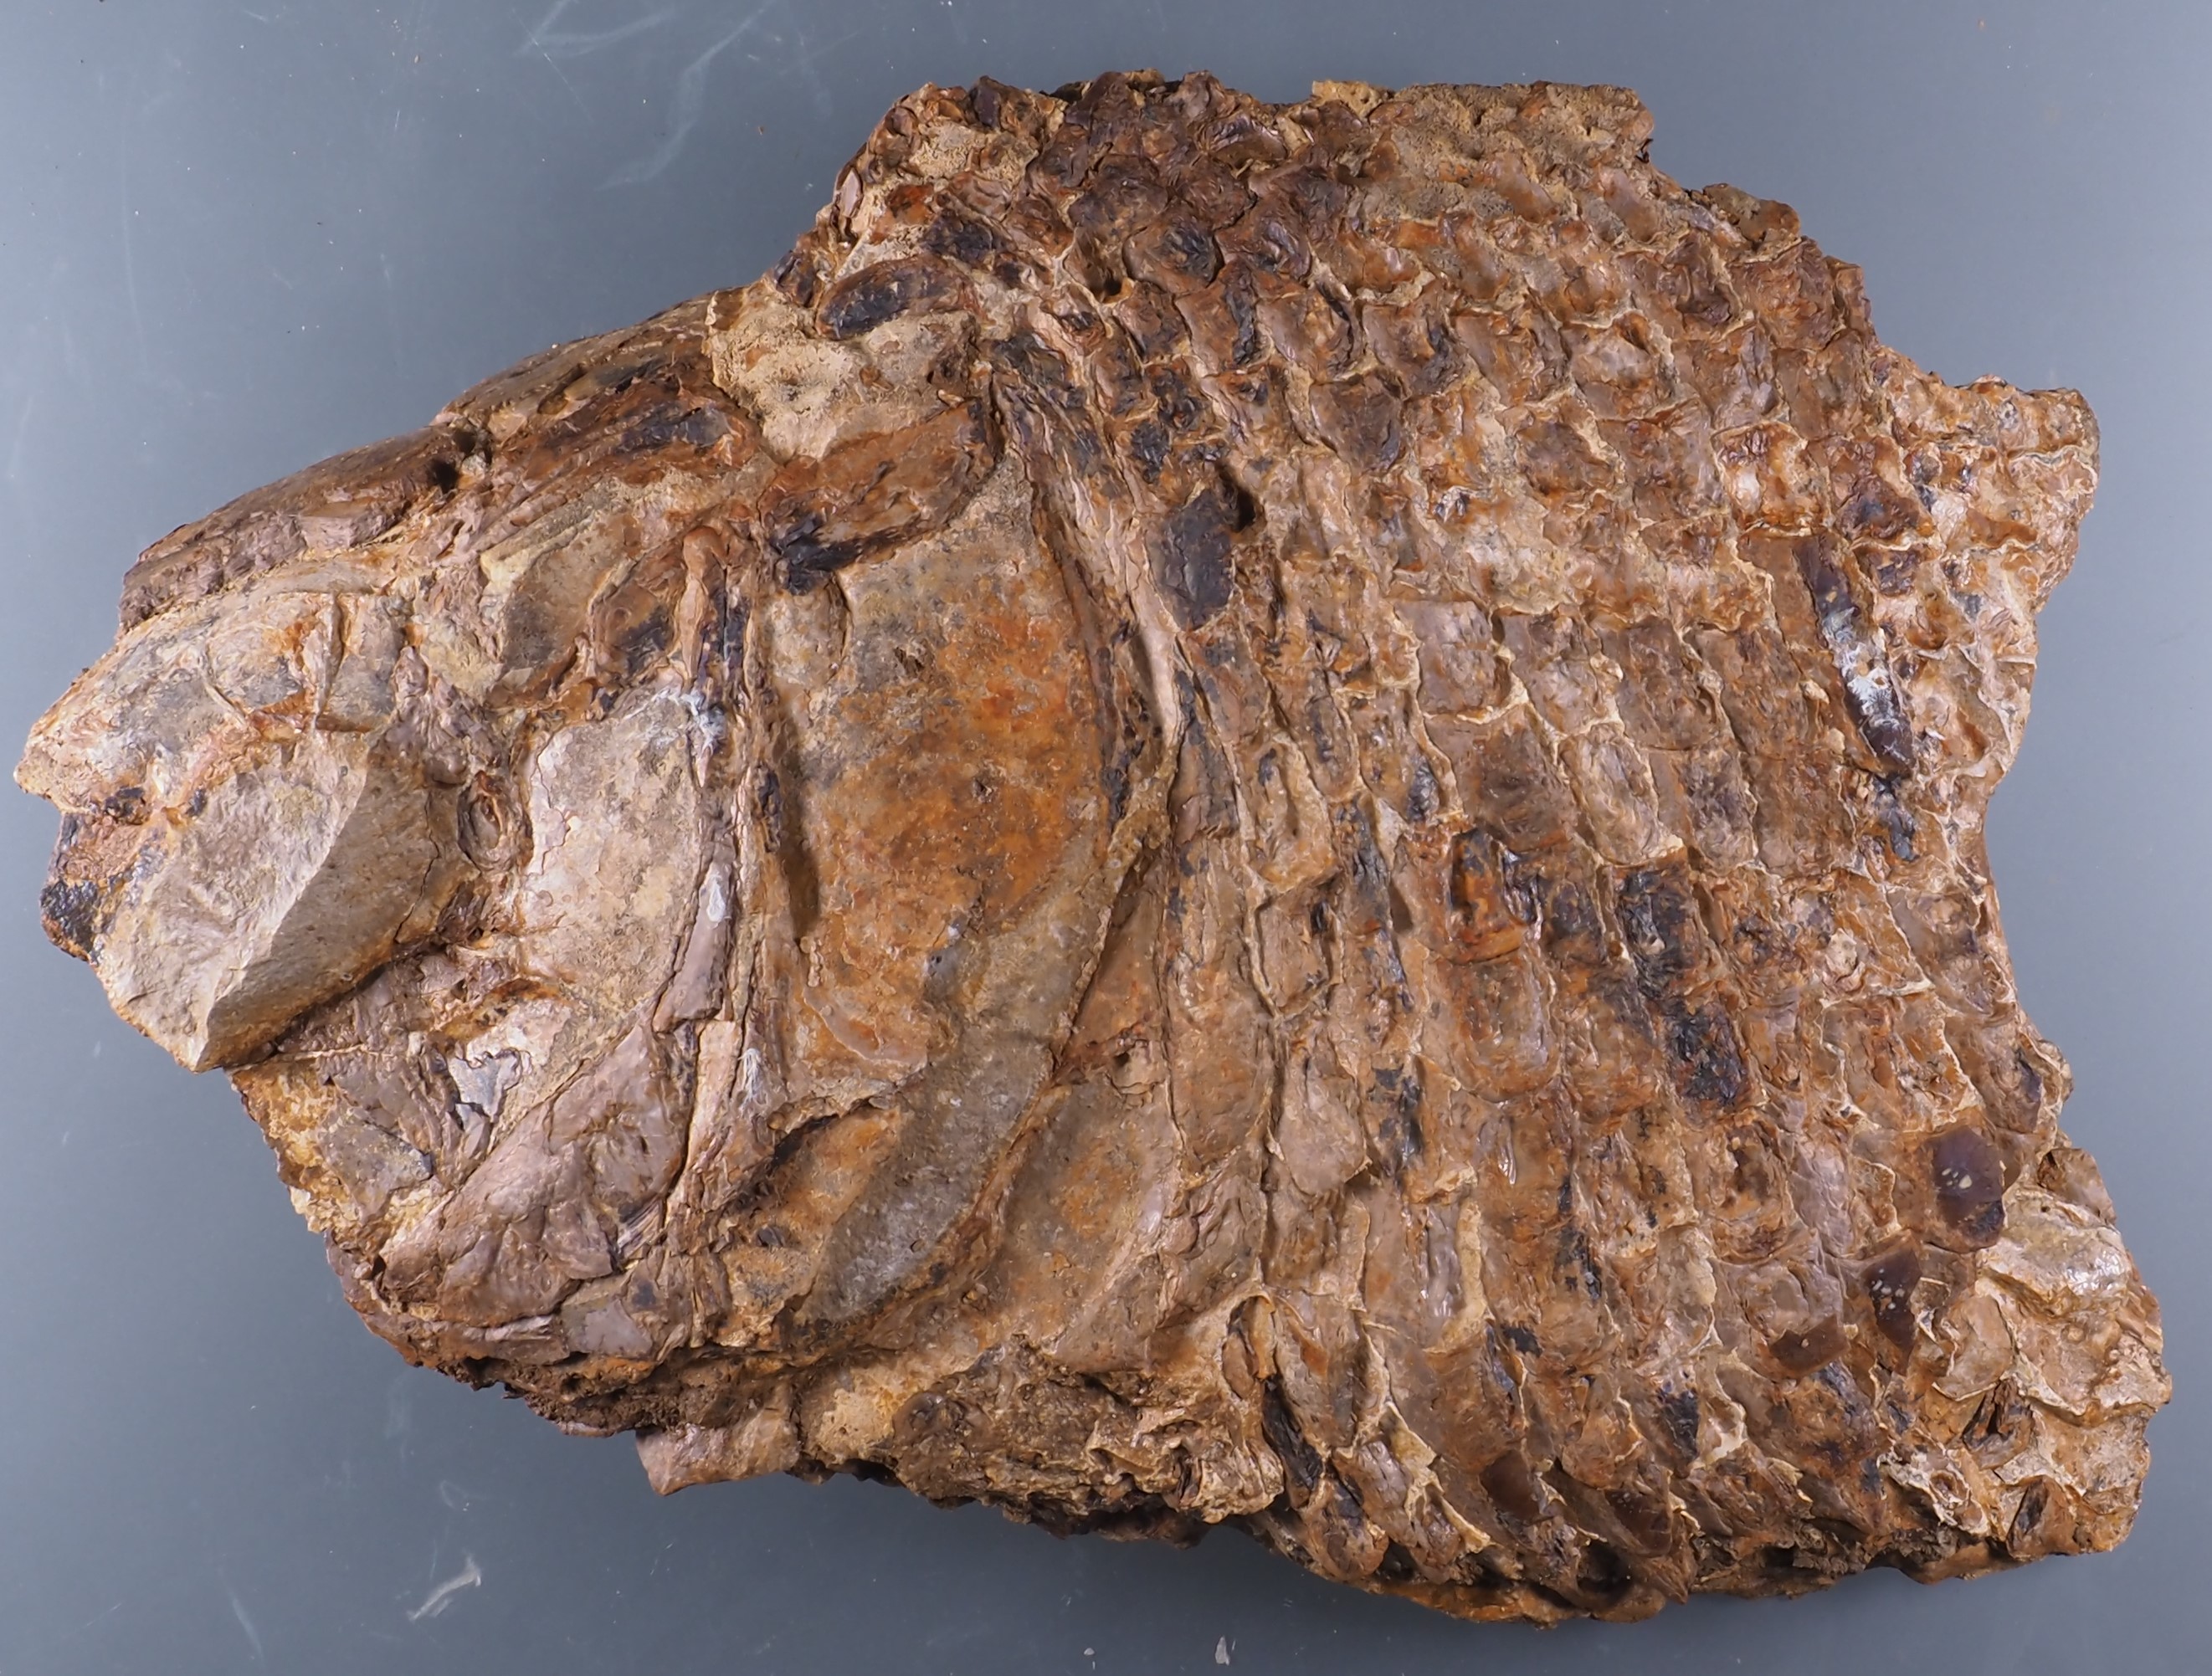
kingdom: Animalia
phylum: Chordata
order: Lepisosteiformes
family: Lepidotidae
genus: Lepidotes
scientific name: Lepidotes elvensis
